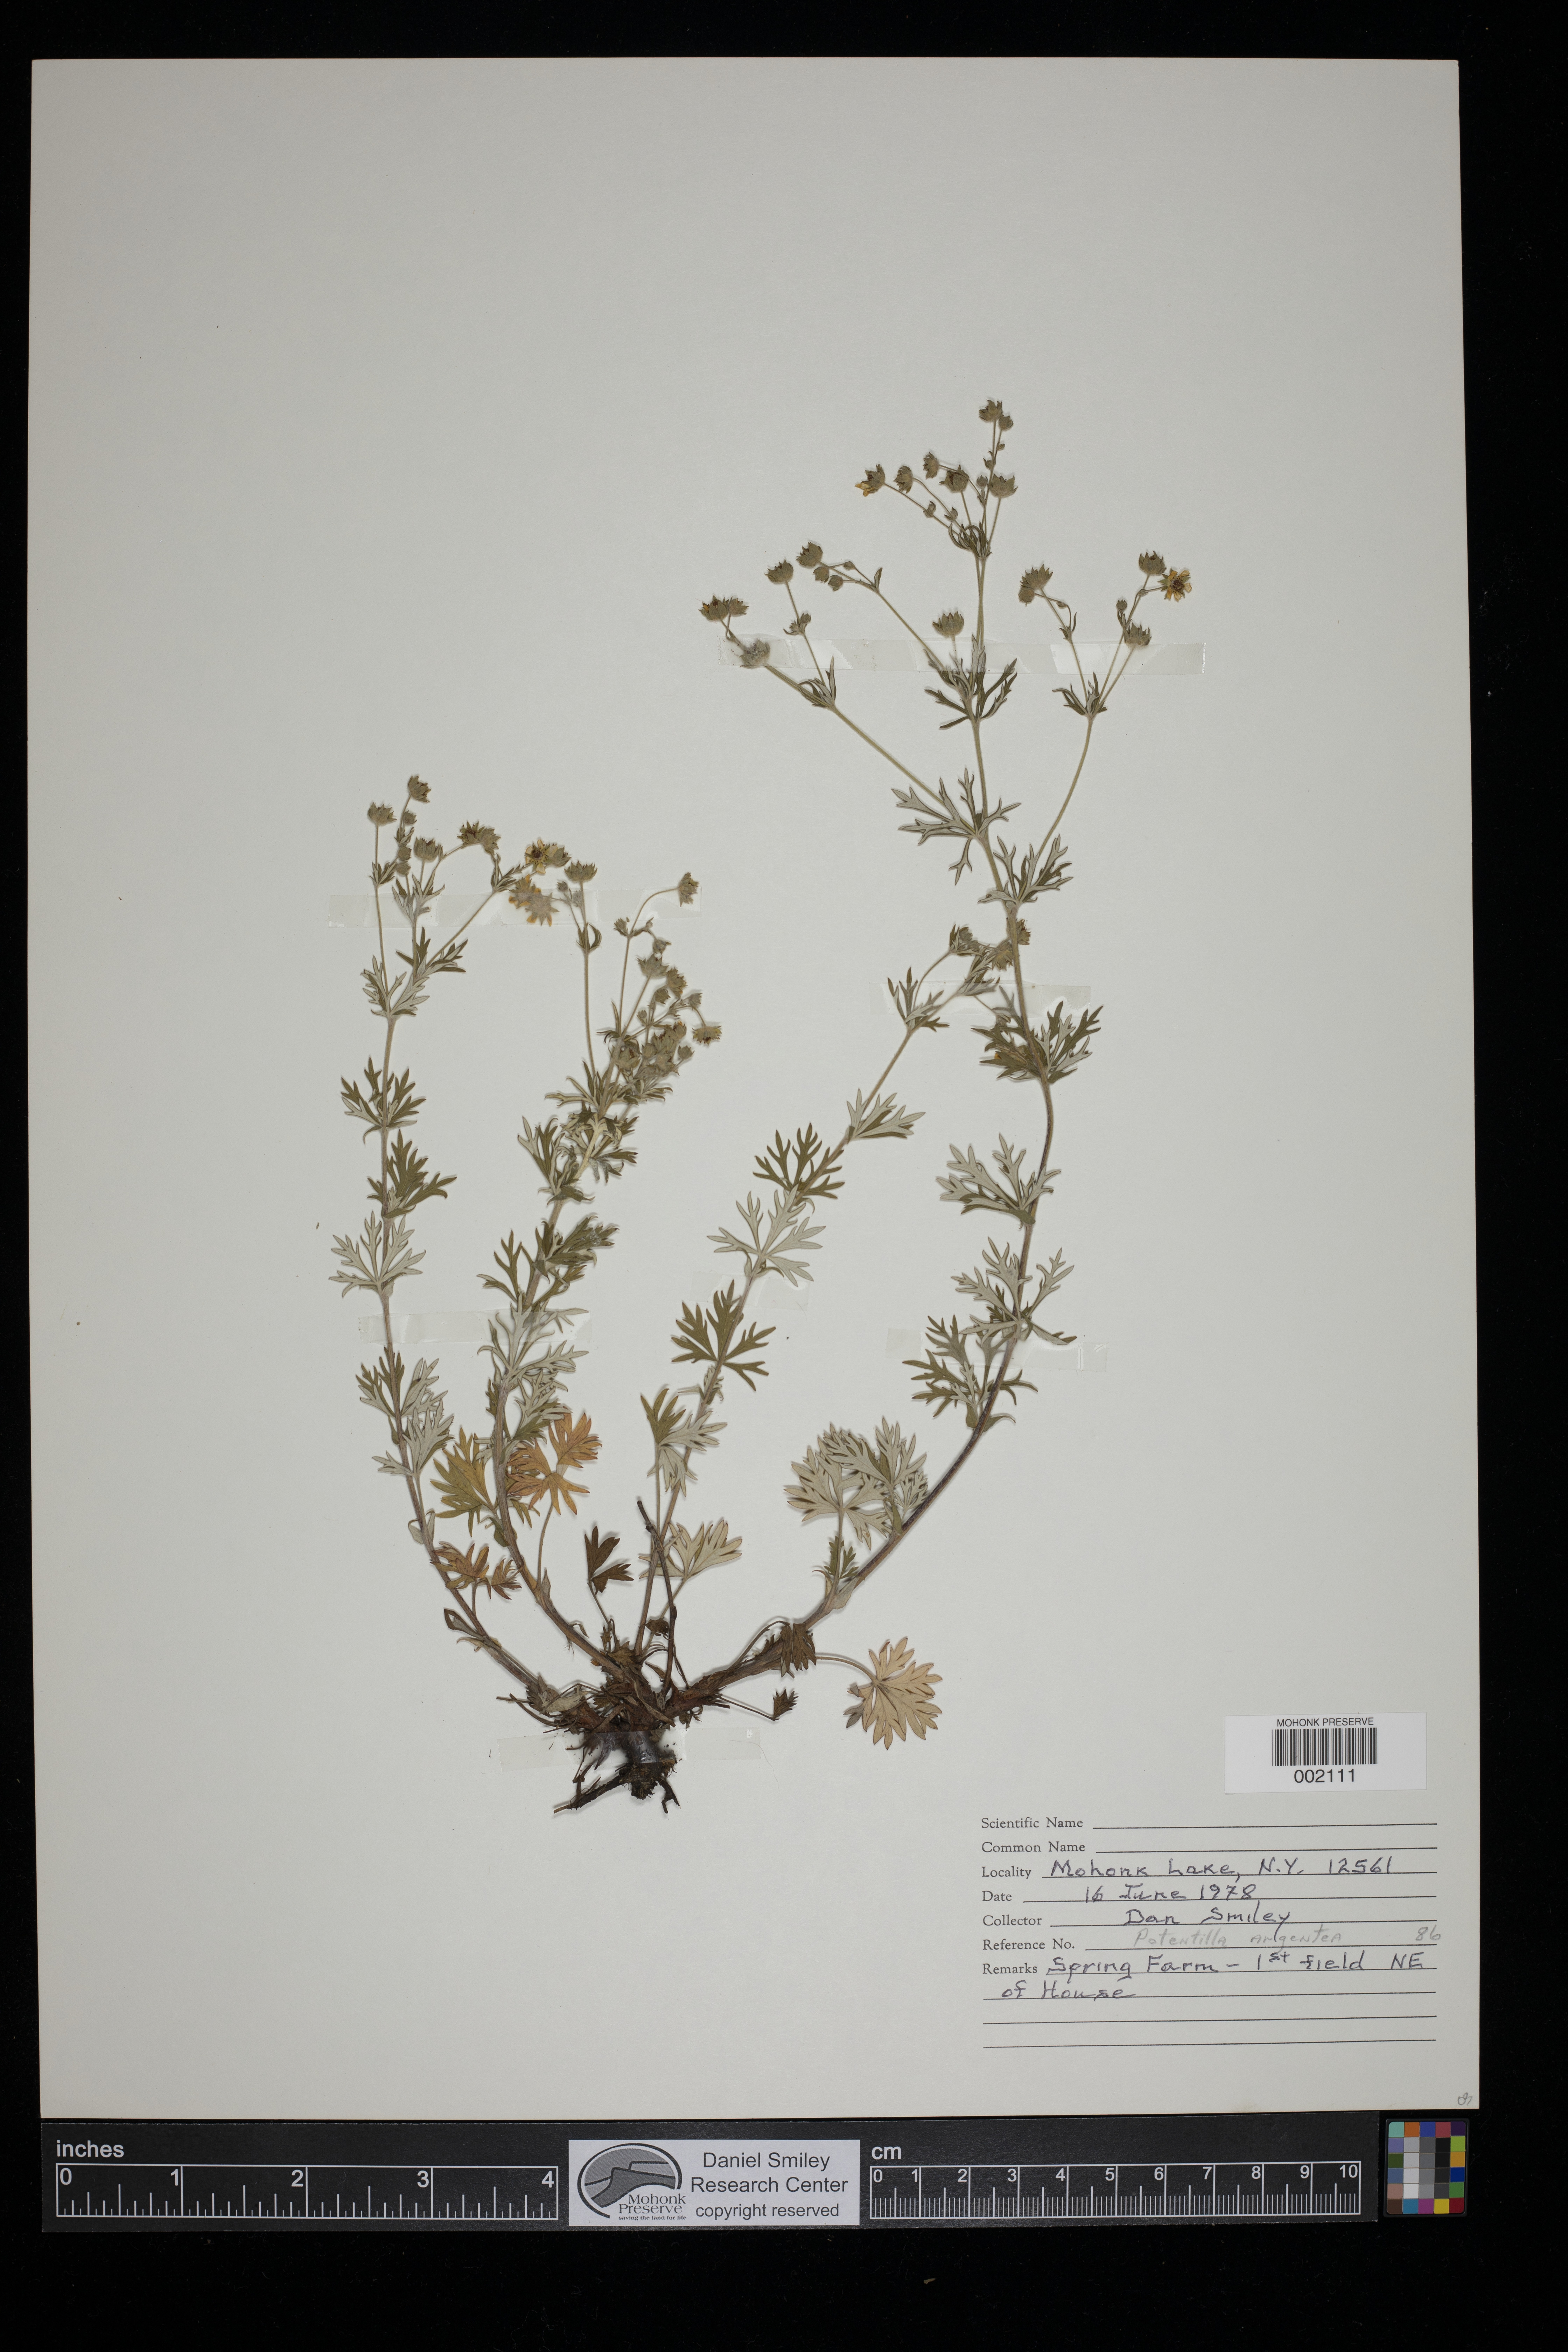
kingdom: Plantae
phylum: Tracheophyta
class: Magnoliopsida
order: Rosales
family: Rosaceae
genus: Potentilla
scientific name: Potentilla argentea
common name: Hoary cinquefoil
